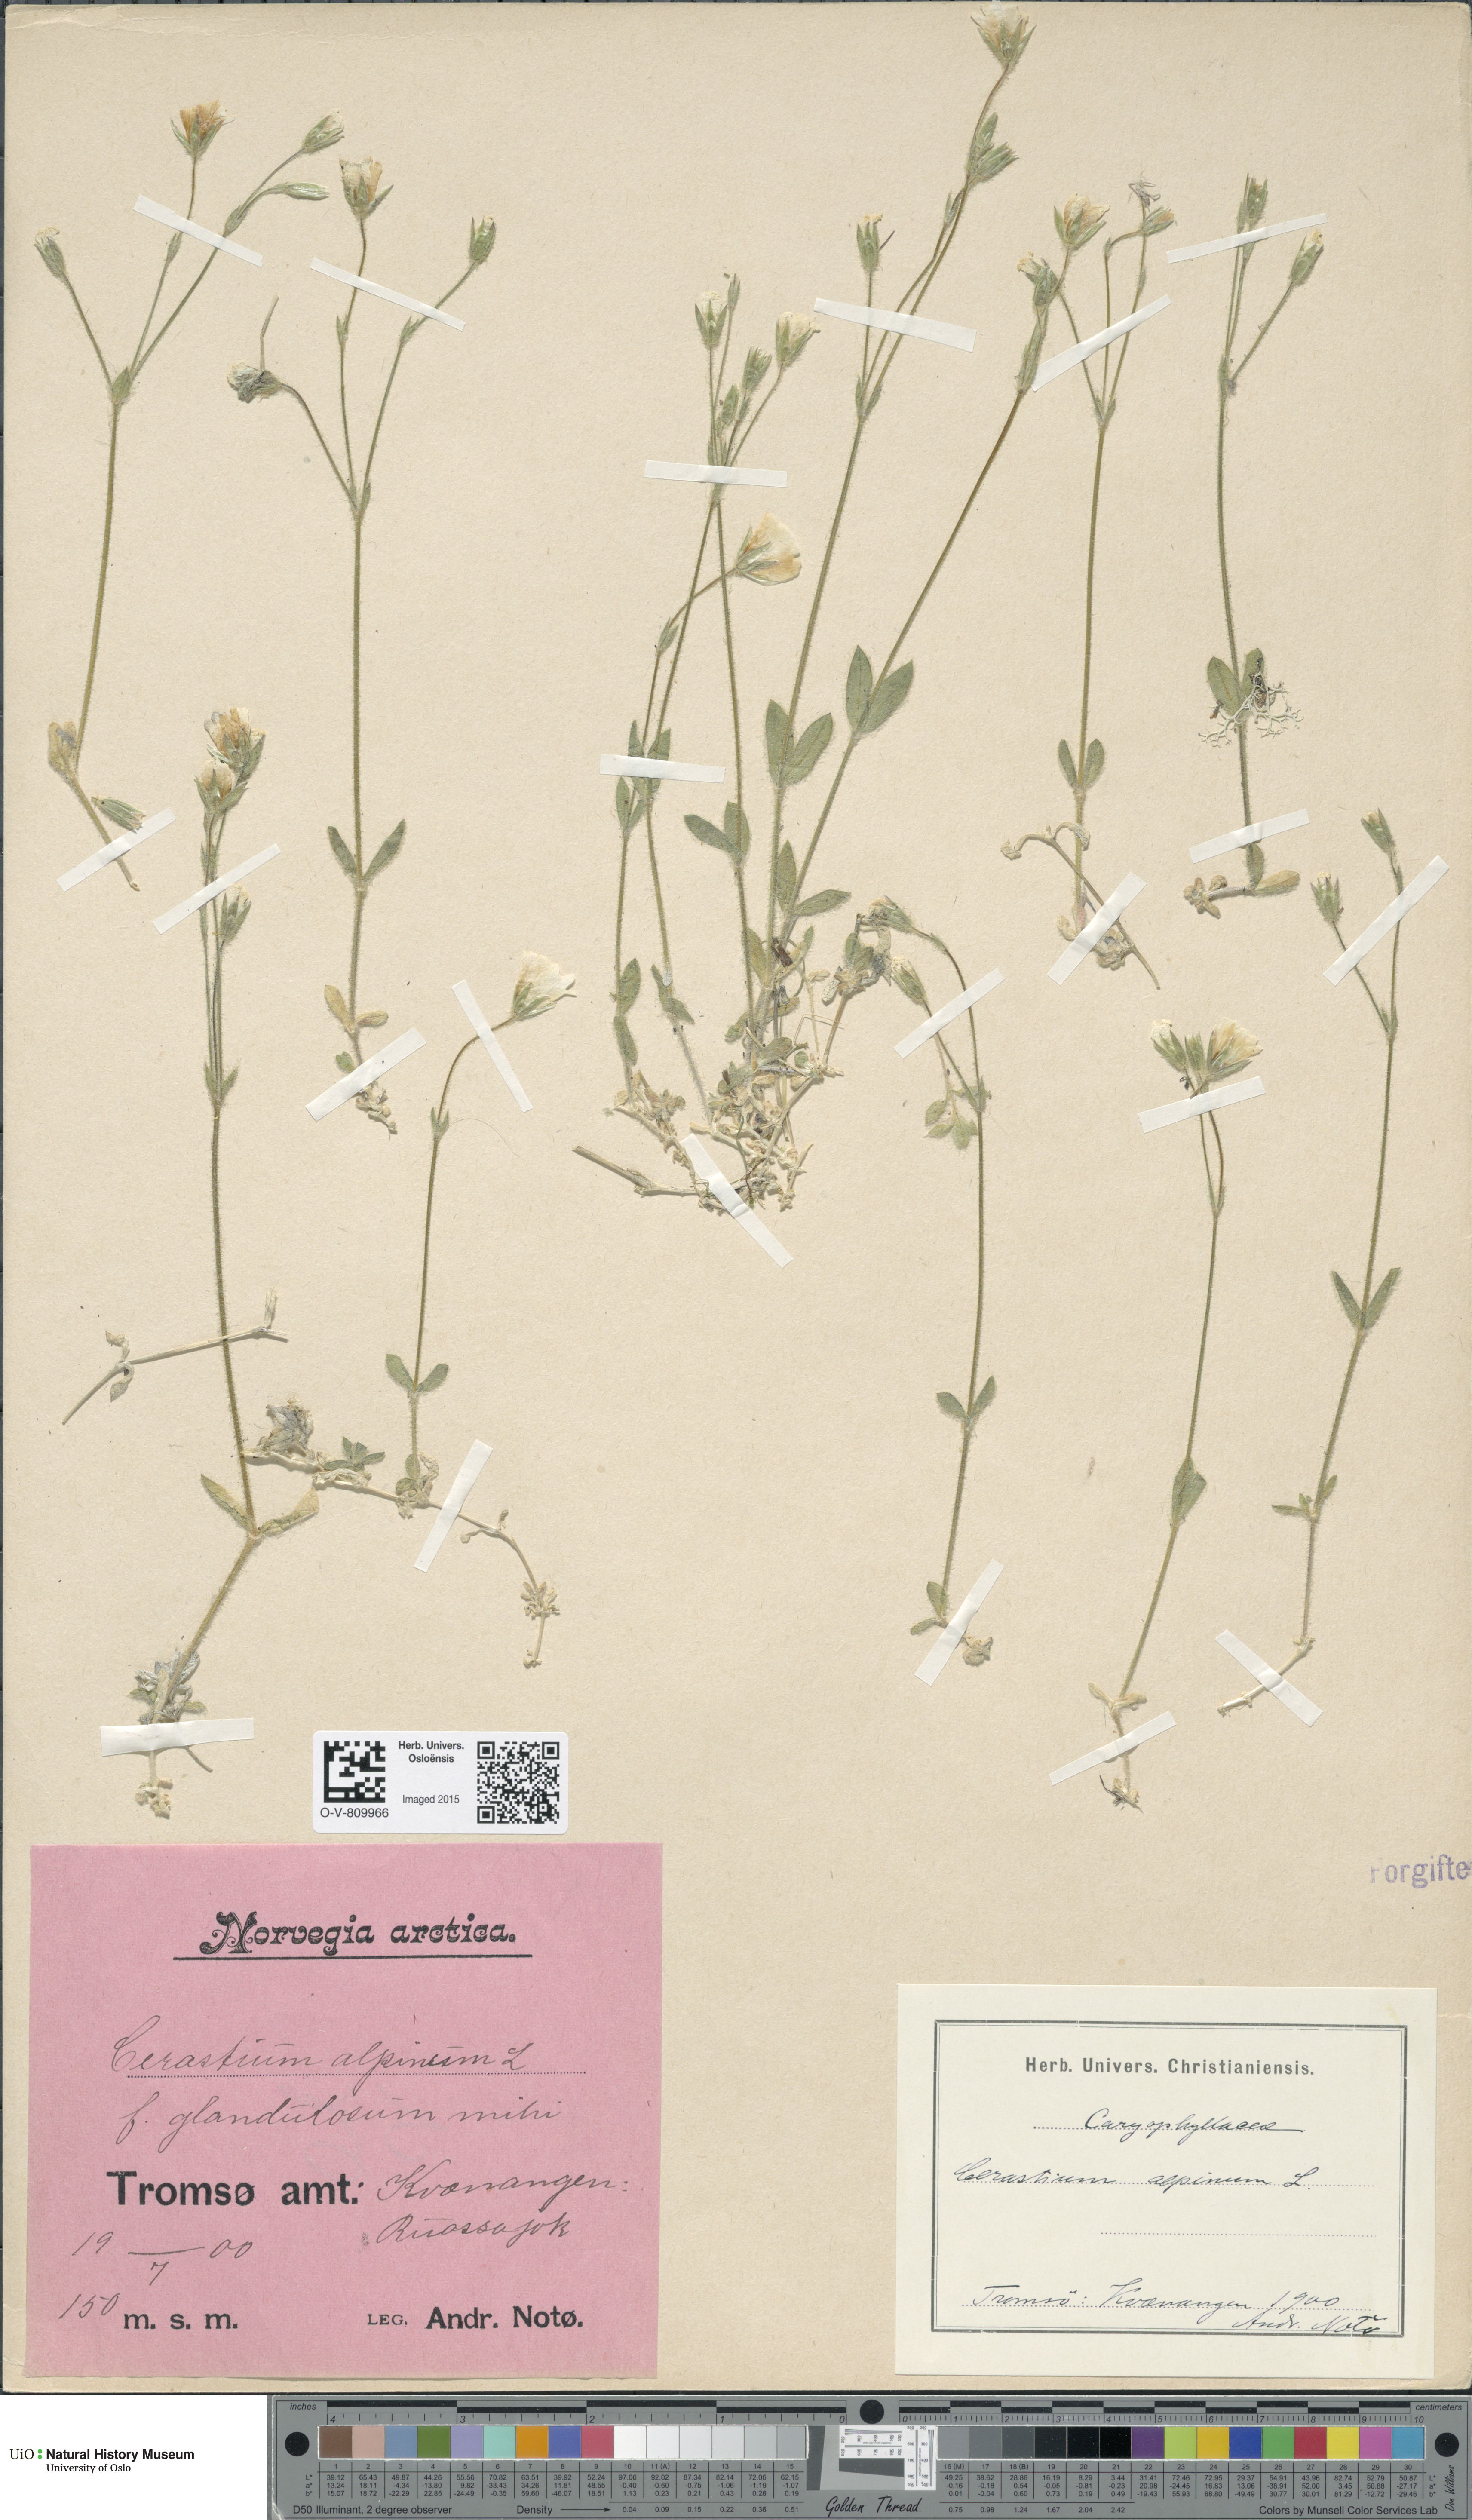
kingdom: Plantae
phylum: Tracheophyta
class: Magnoliopsida
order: Caryophyllales
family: Caryophyllaceae
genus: Cerastium
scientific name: Cerastium alpinum
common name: Alpine mouse-ear
